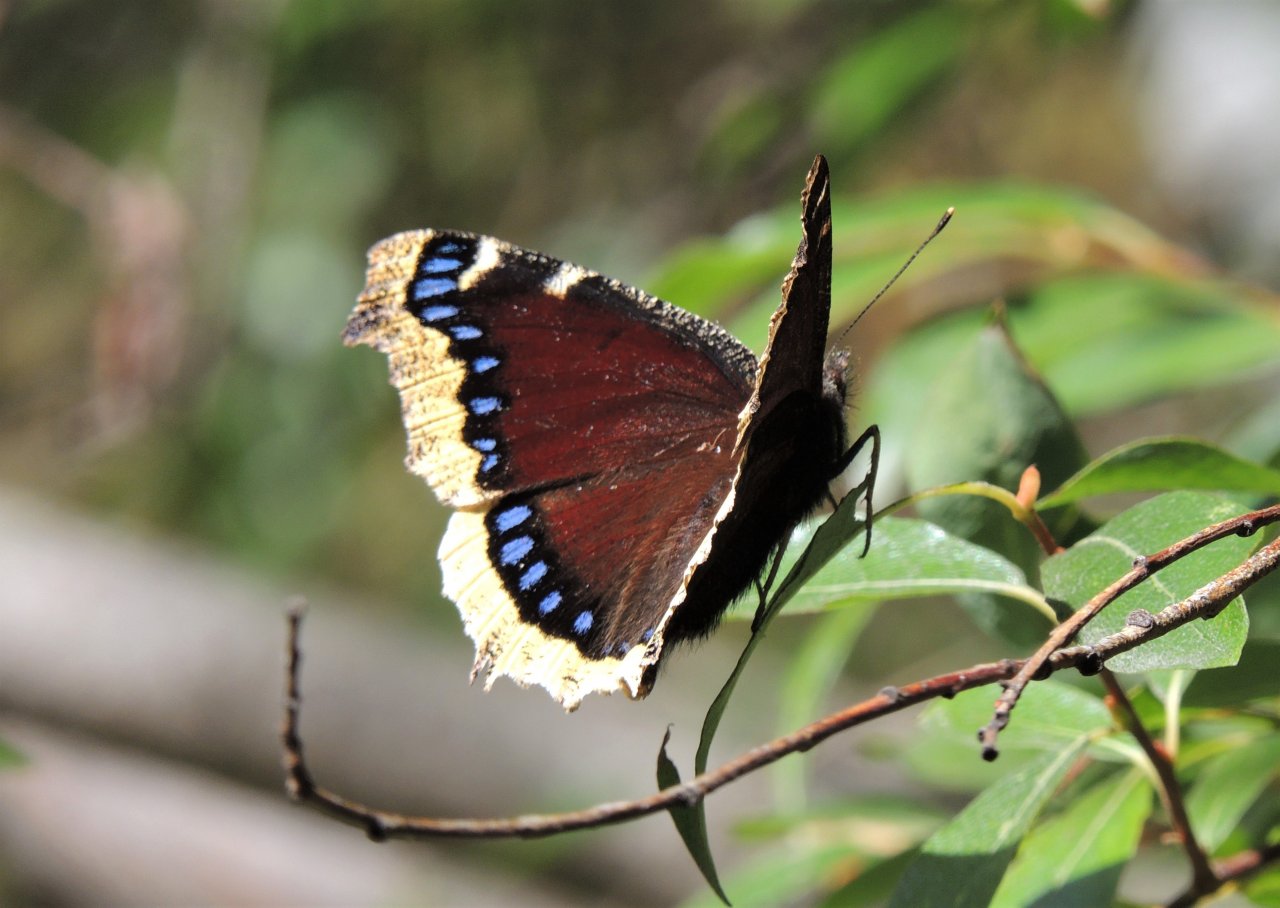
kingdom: Animalia
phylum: Arthropoda
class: Insecta
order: Lepidoptera
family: Nymphalidae
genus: Nymphalis
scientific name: Nymphalis antiopa
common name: Mourning Cloak
